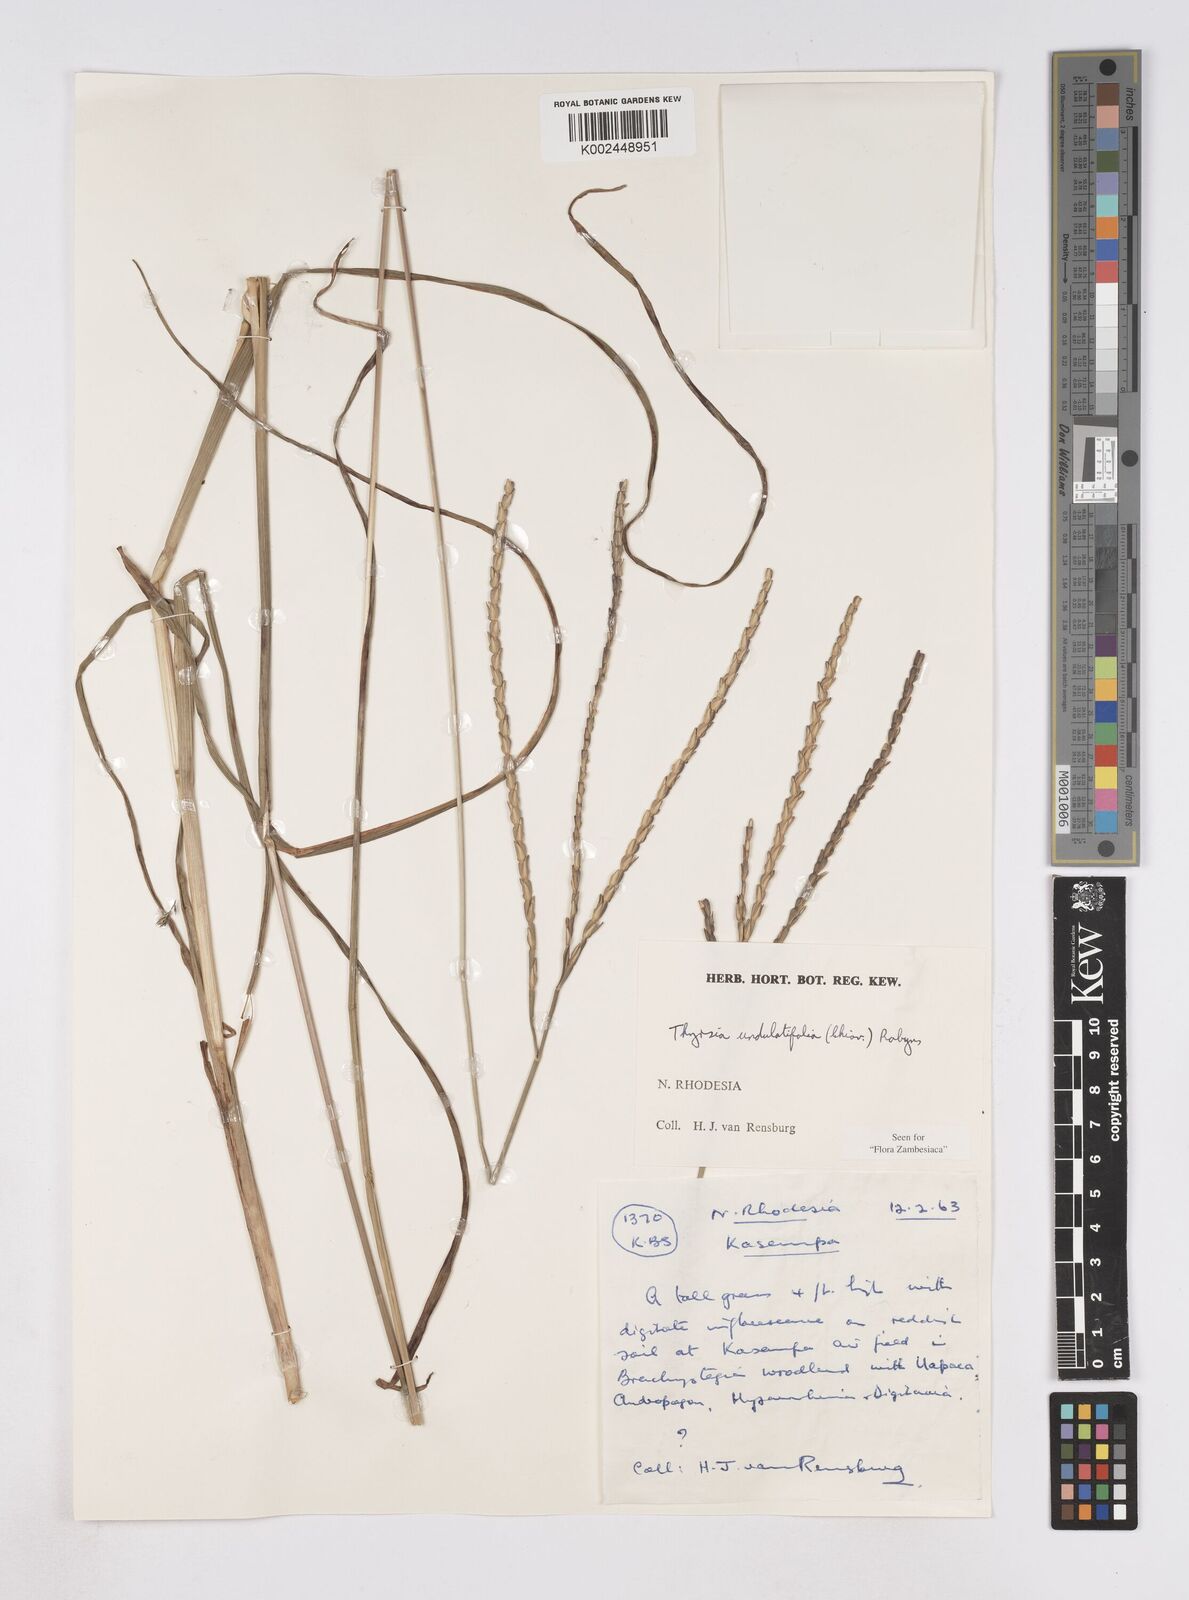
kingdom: Plantae
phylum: Tracheophyta
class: Liliopsida
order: Poales
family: Poaceae
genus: Thyrsia
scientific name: Thyrsia huillensis
